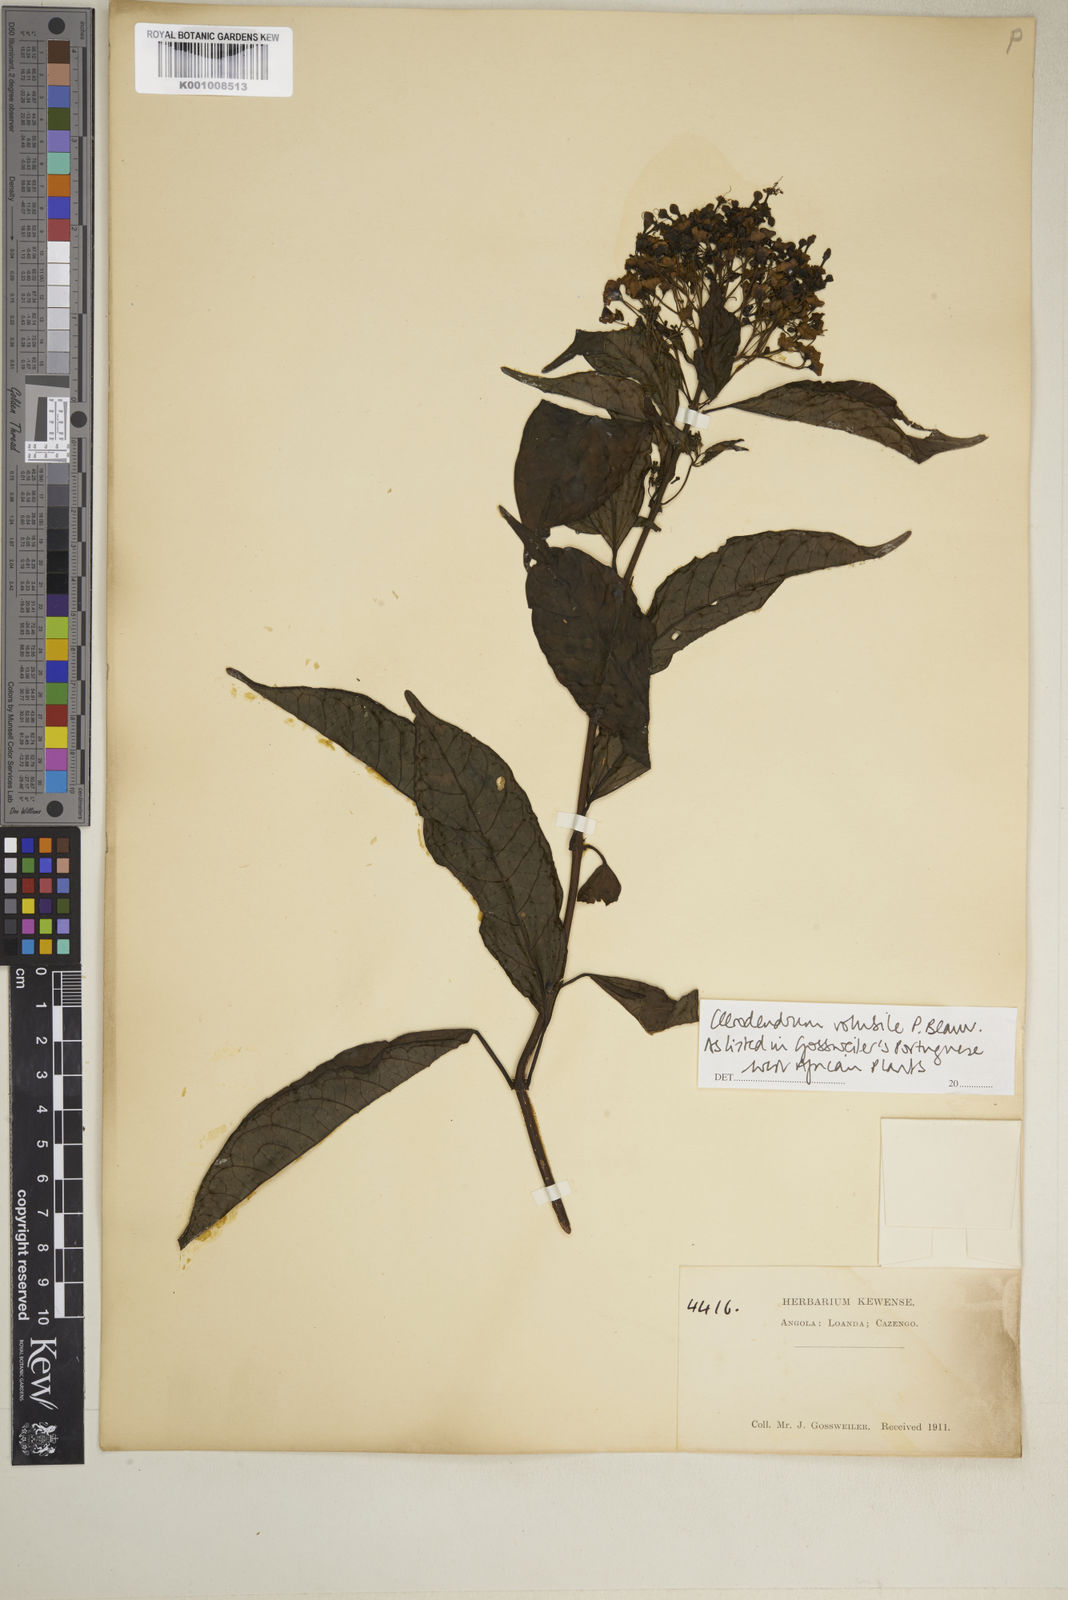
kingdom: Plantae
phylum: Tracheophyta
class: Magnoliopsida
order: Lamiales
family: Lamiaceae
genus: Clerodendrum
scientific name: Clerodendrum volubile
